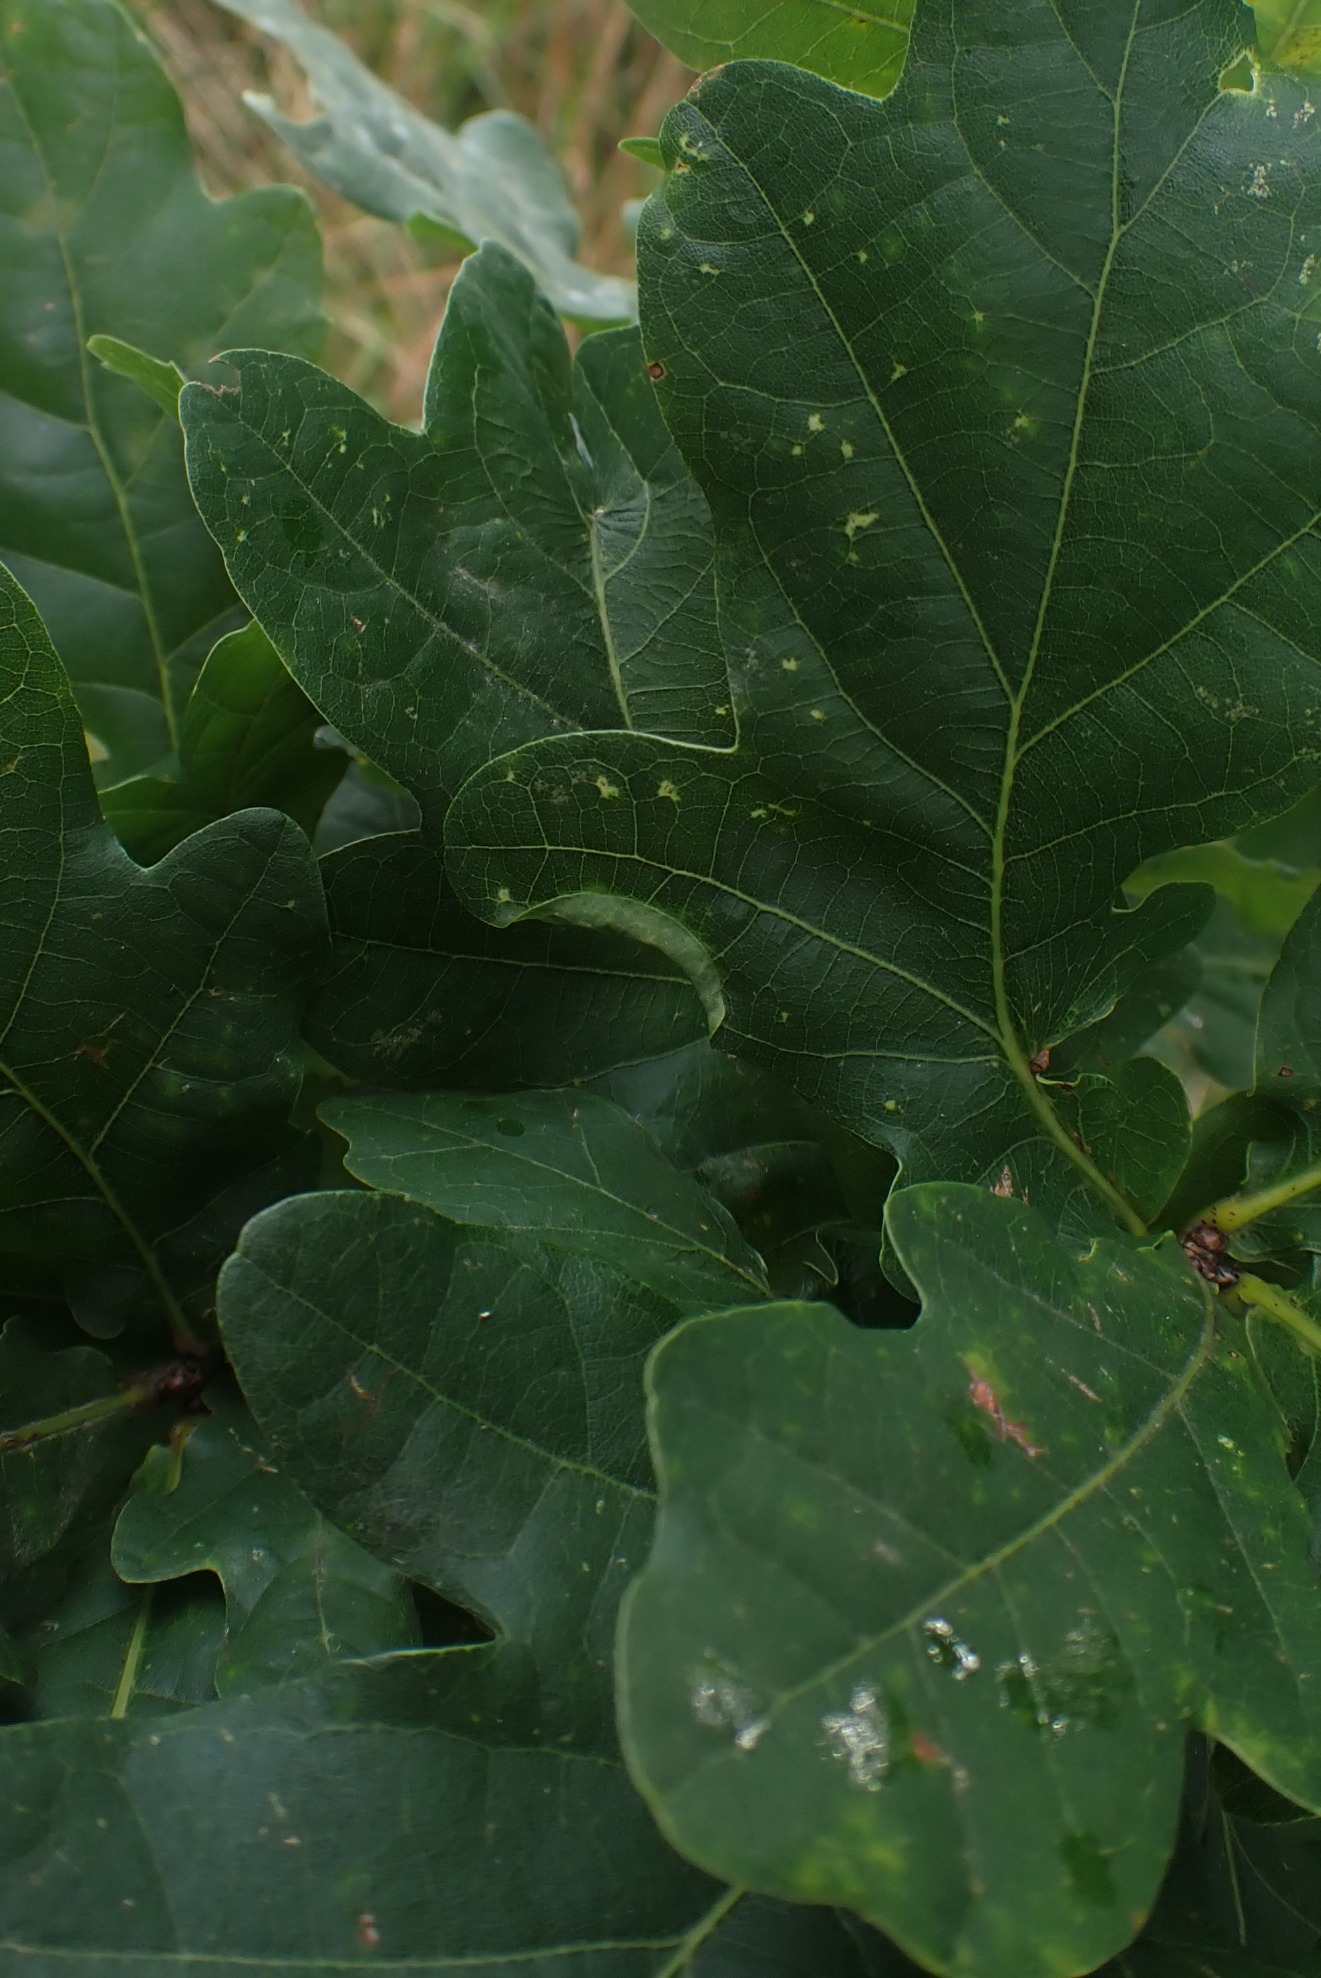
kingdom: Animalia
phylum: Arthropoda
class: Insecta
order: Diptera
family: Cecidomyiidae
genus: Macrodiplosis
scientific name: Macrodiplosis volvens
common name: Egerullegalmyg
